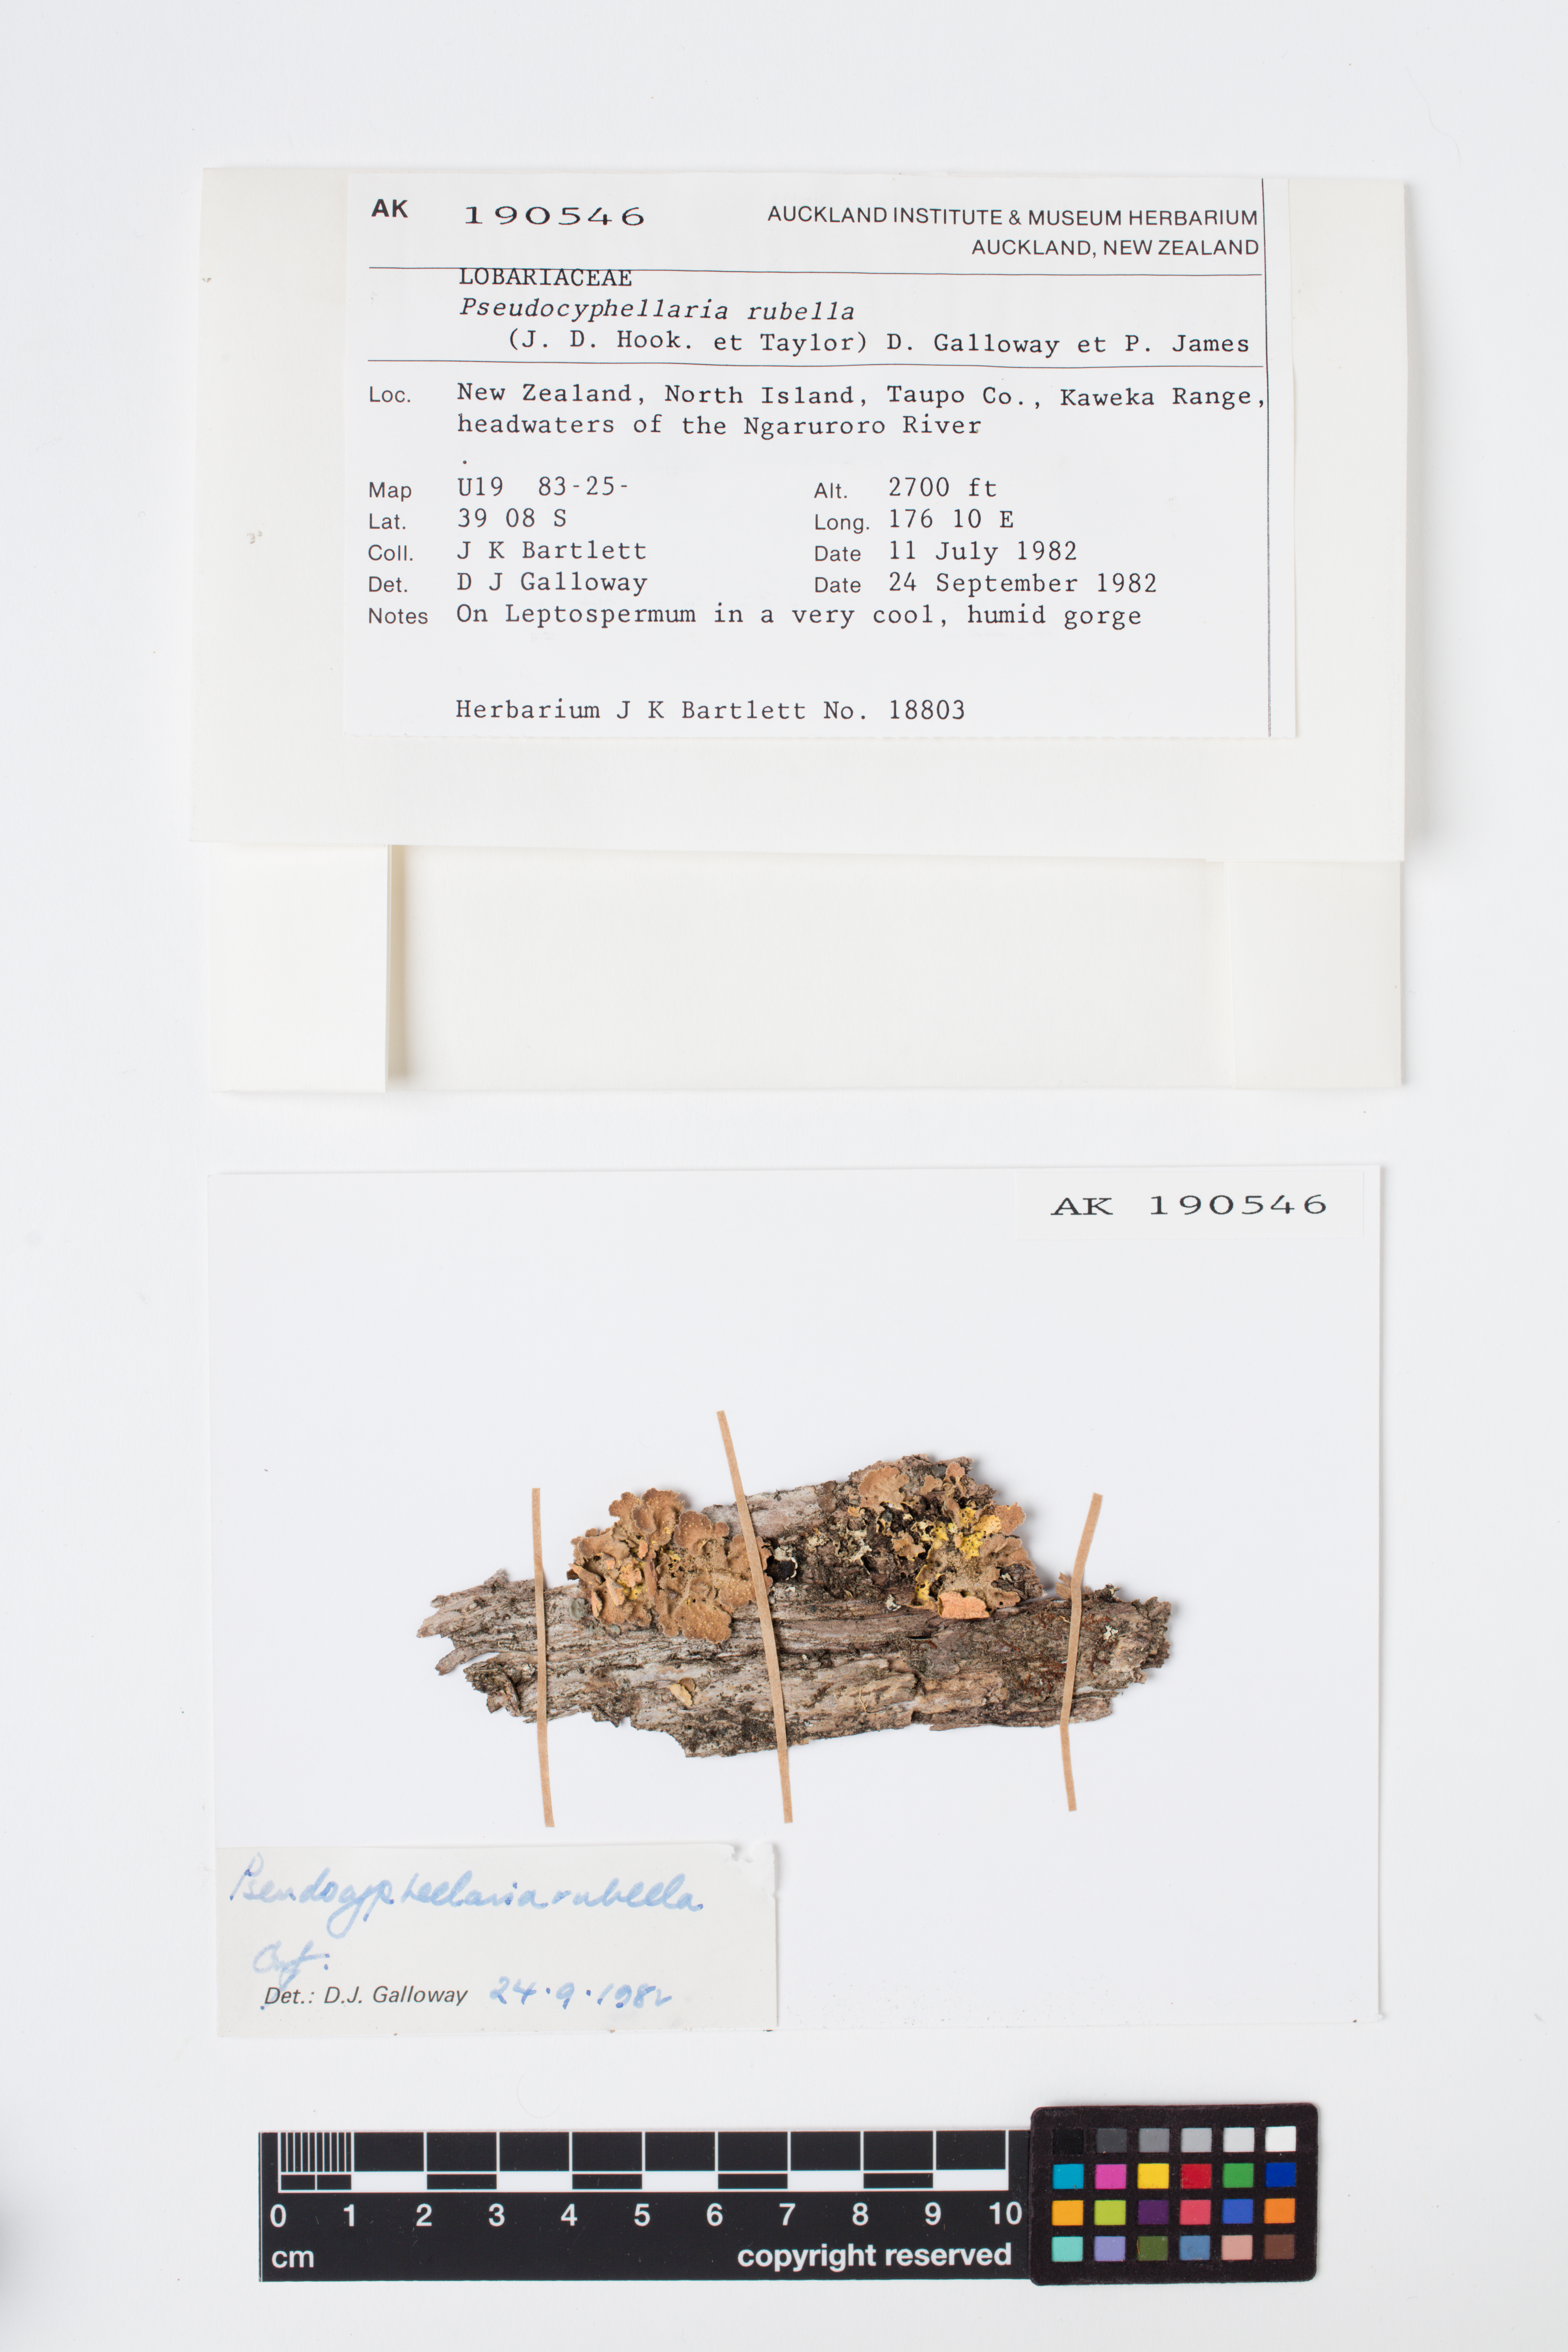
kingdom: Fungi
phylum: Ascomycota
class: Lecanoromycetes
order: Peltigerales
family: Lobariaceae
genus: Pseudocyphellaria
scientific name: Pseudocyphellaria rubella
